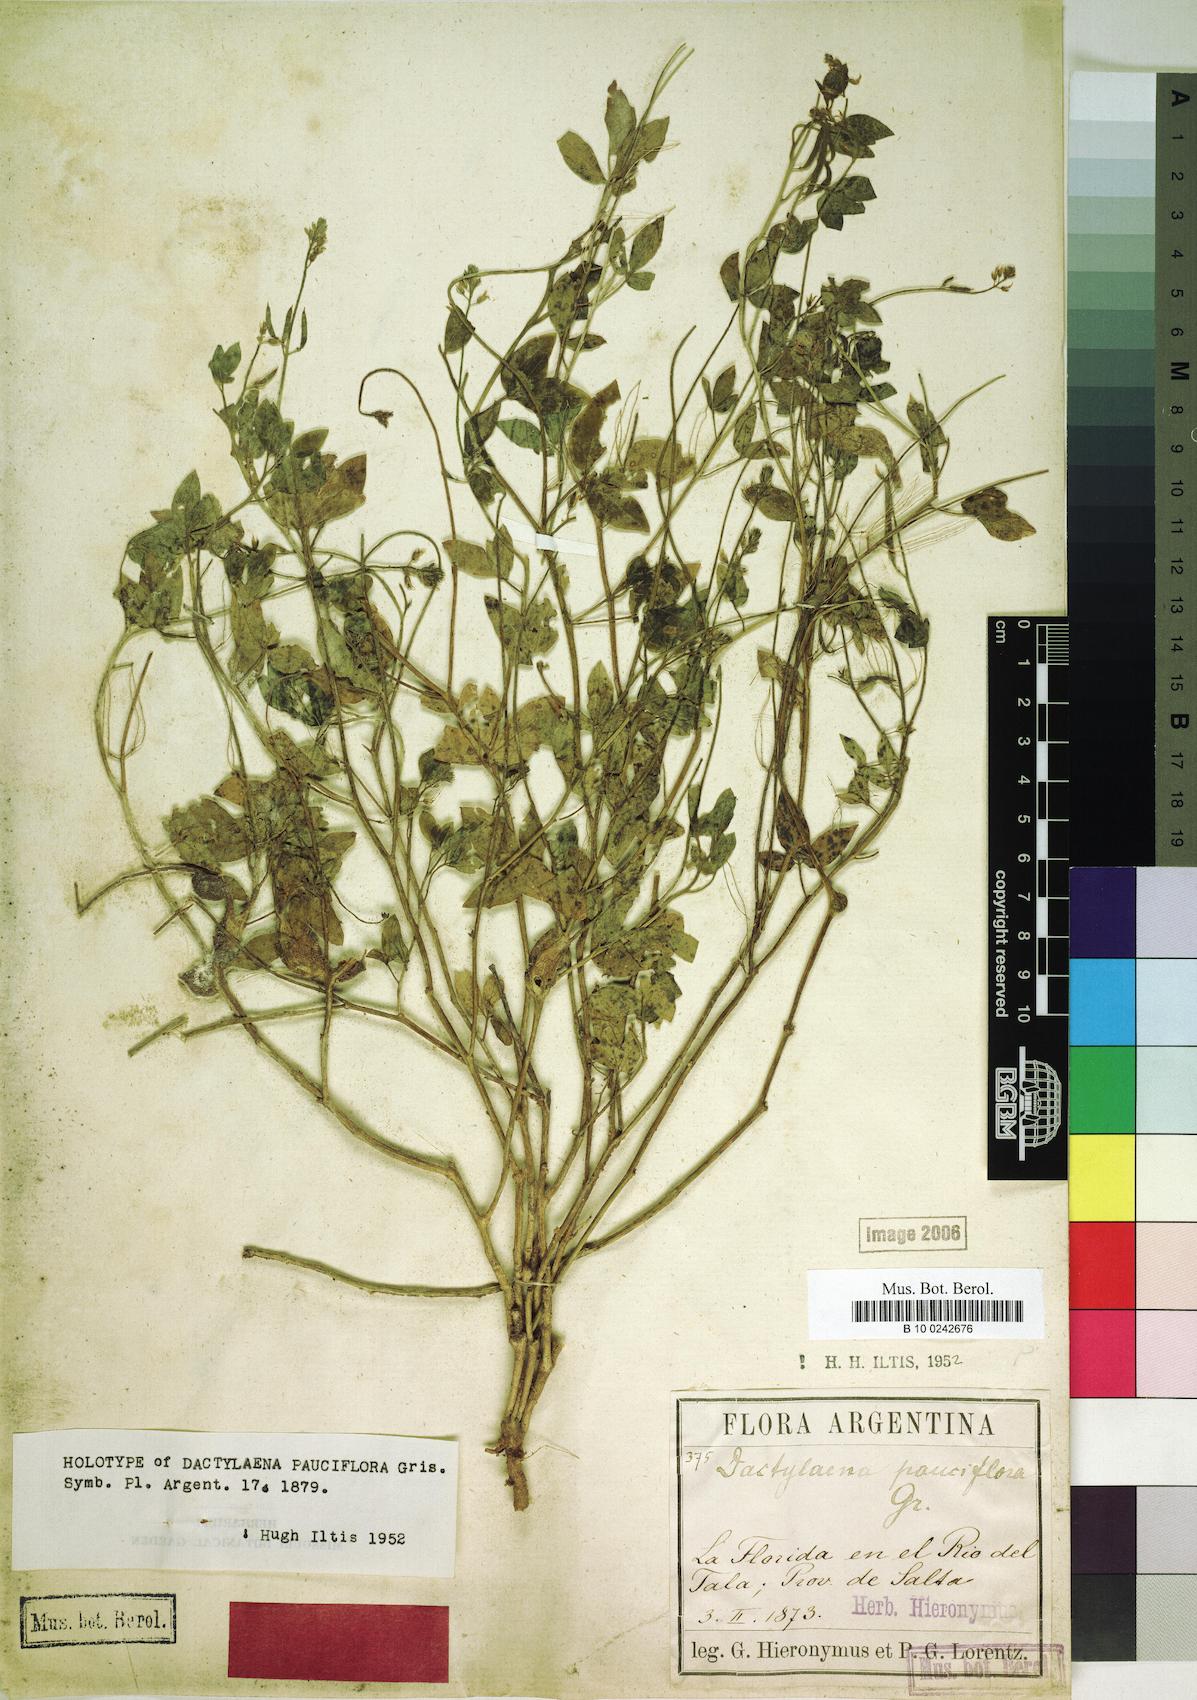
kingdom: Plantae
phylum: Tracheophyta
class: Magnoliopsida
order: Brassicales
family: Cleomaceae
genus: Dactylaena
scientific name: Dactylaena pauciflora
